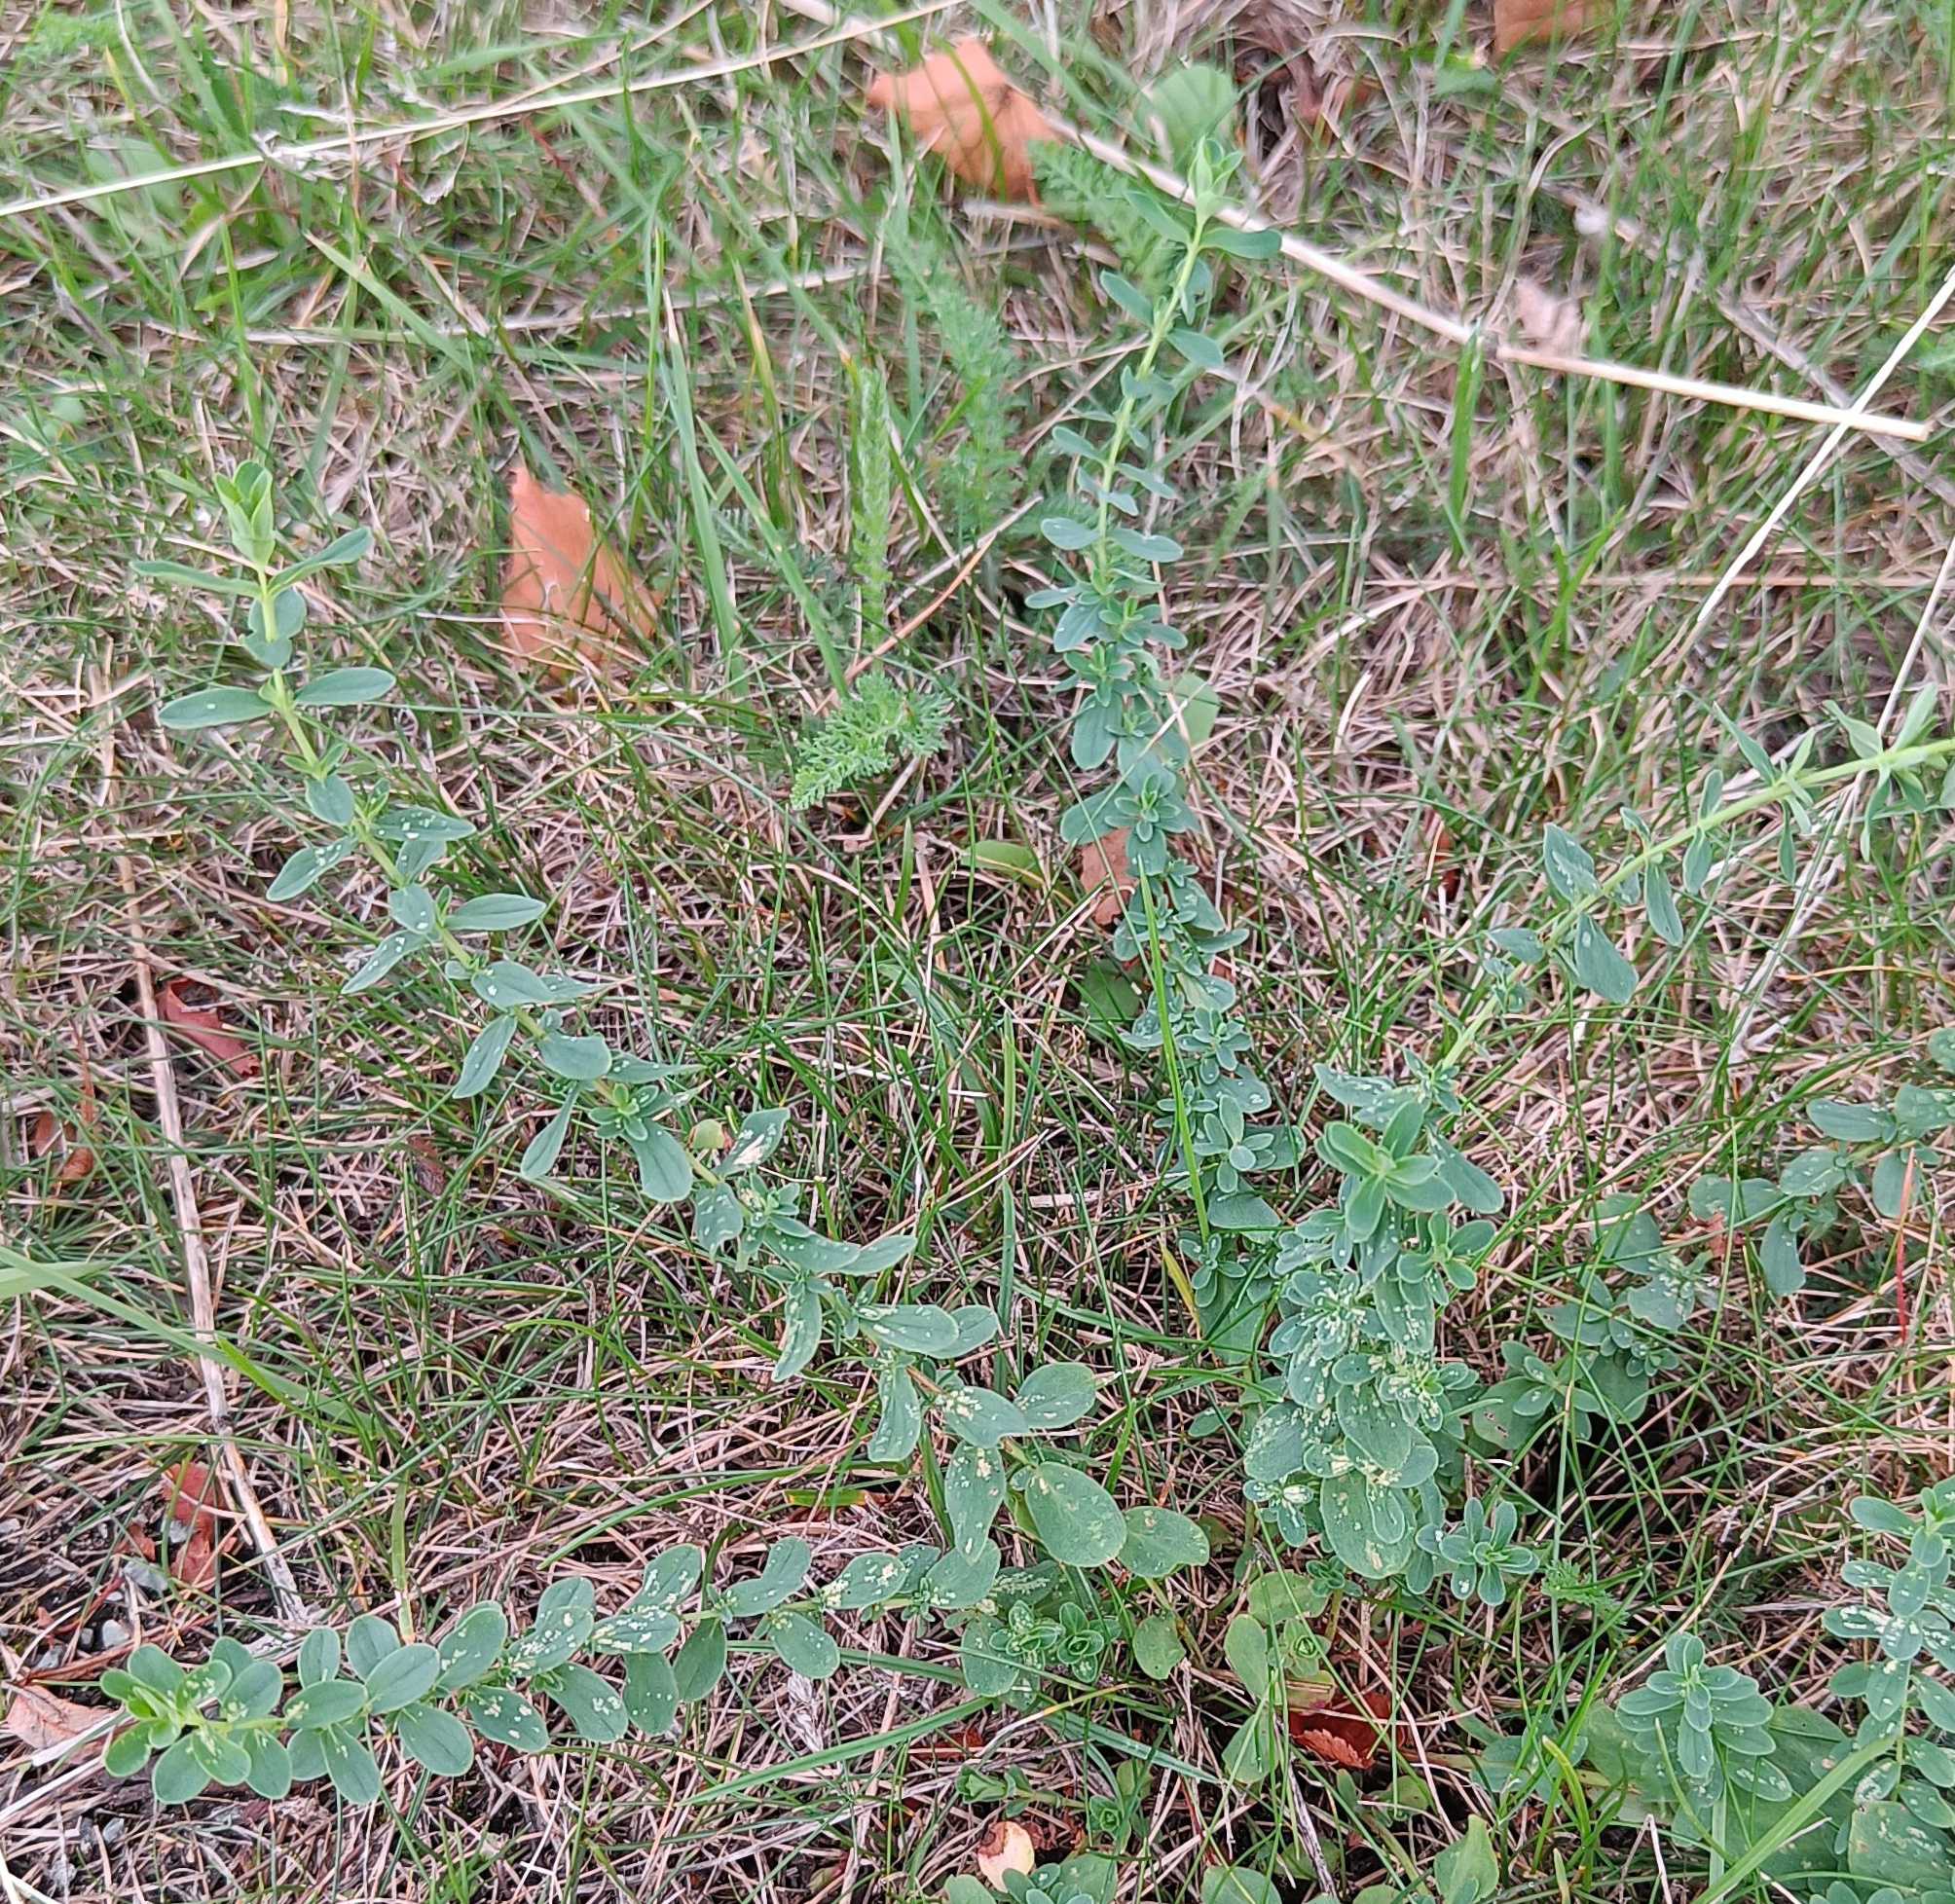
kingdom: Plantae
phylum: Tracheophyta
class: Magnoliopsida
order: Malpighiales
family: Hypericaceae
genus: Hypericum
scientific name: Hypericum
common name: Perikonslægten
